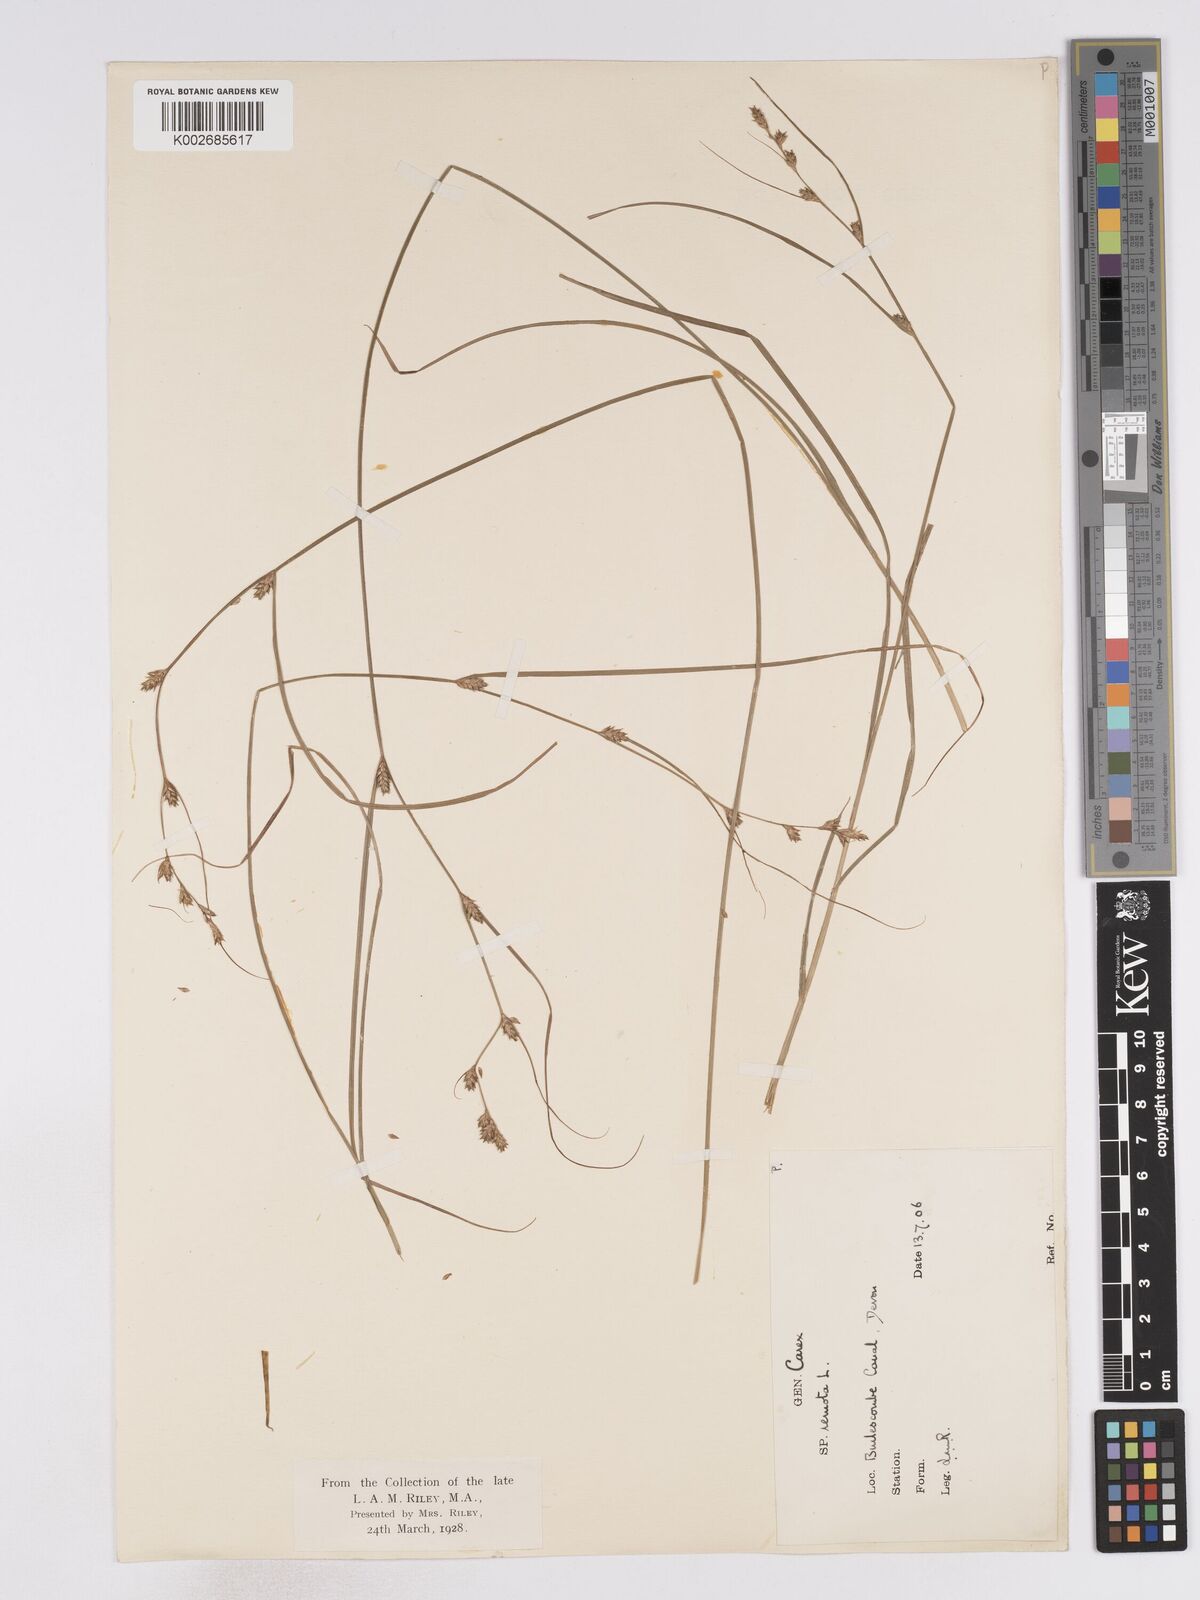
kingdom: Plantae
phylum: Tracheophyta
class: Liliopsida
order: Poales
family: Cyperaceae
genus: Carex
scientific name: Carex remota
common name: Remote sedge
